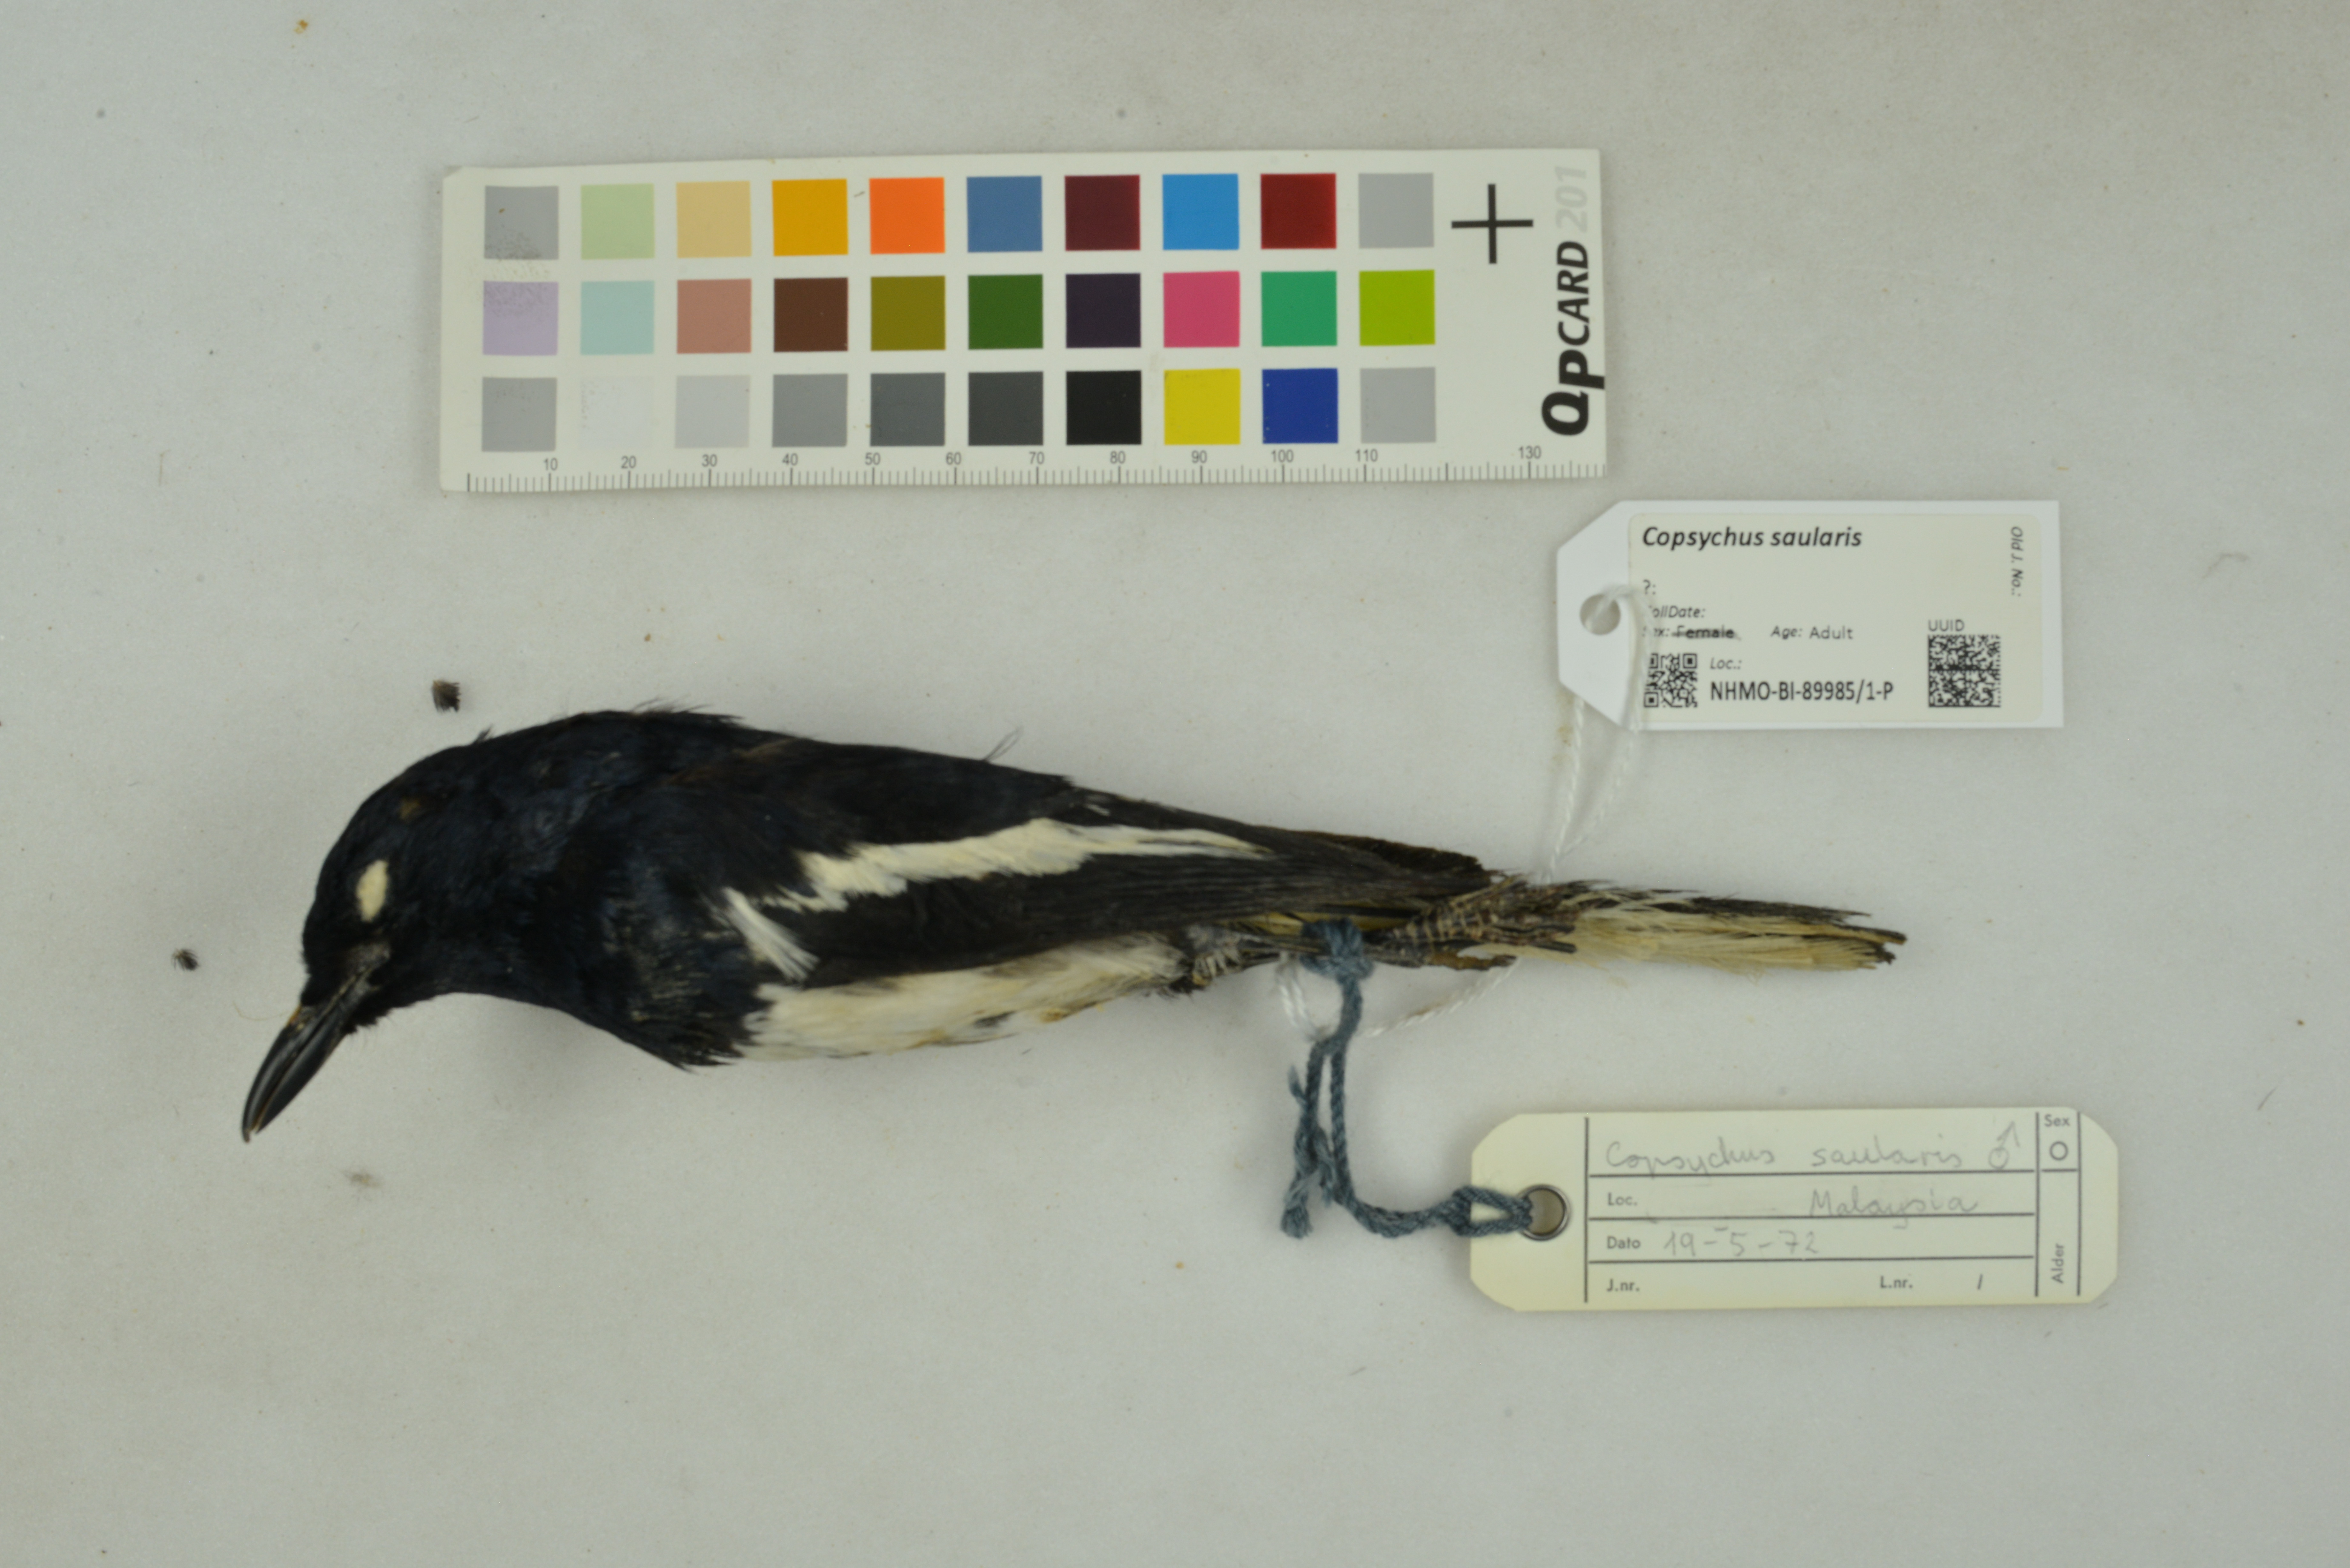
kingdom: Animalia
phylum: Chordata
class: Aves
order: Passeriformes
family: Muscicapidae
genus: Copsychus
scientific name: Copsychus saularis
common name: Oriental magpie-robin
